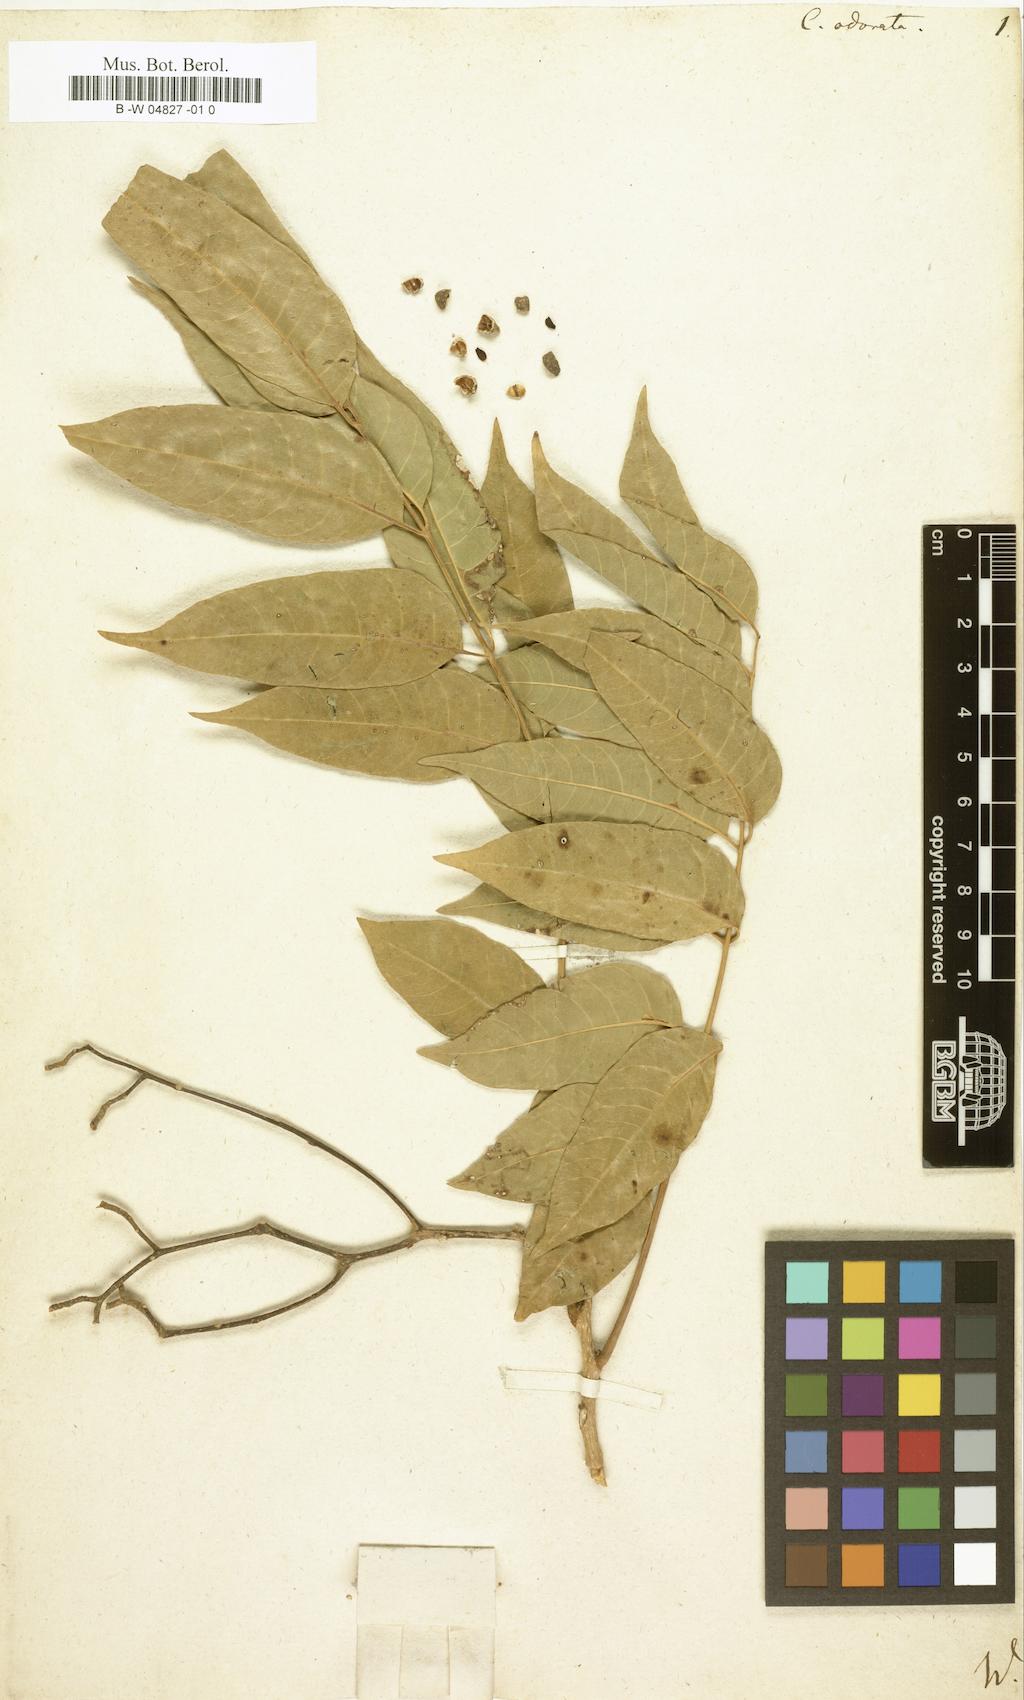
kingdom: Plantae
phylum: Tracheophyta
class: Magnoliopsida
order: Sapindales
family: Meliaceae
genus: Cedrela
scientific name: Cedrela odorata
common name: Red cedar
